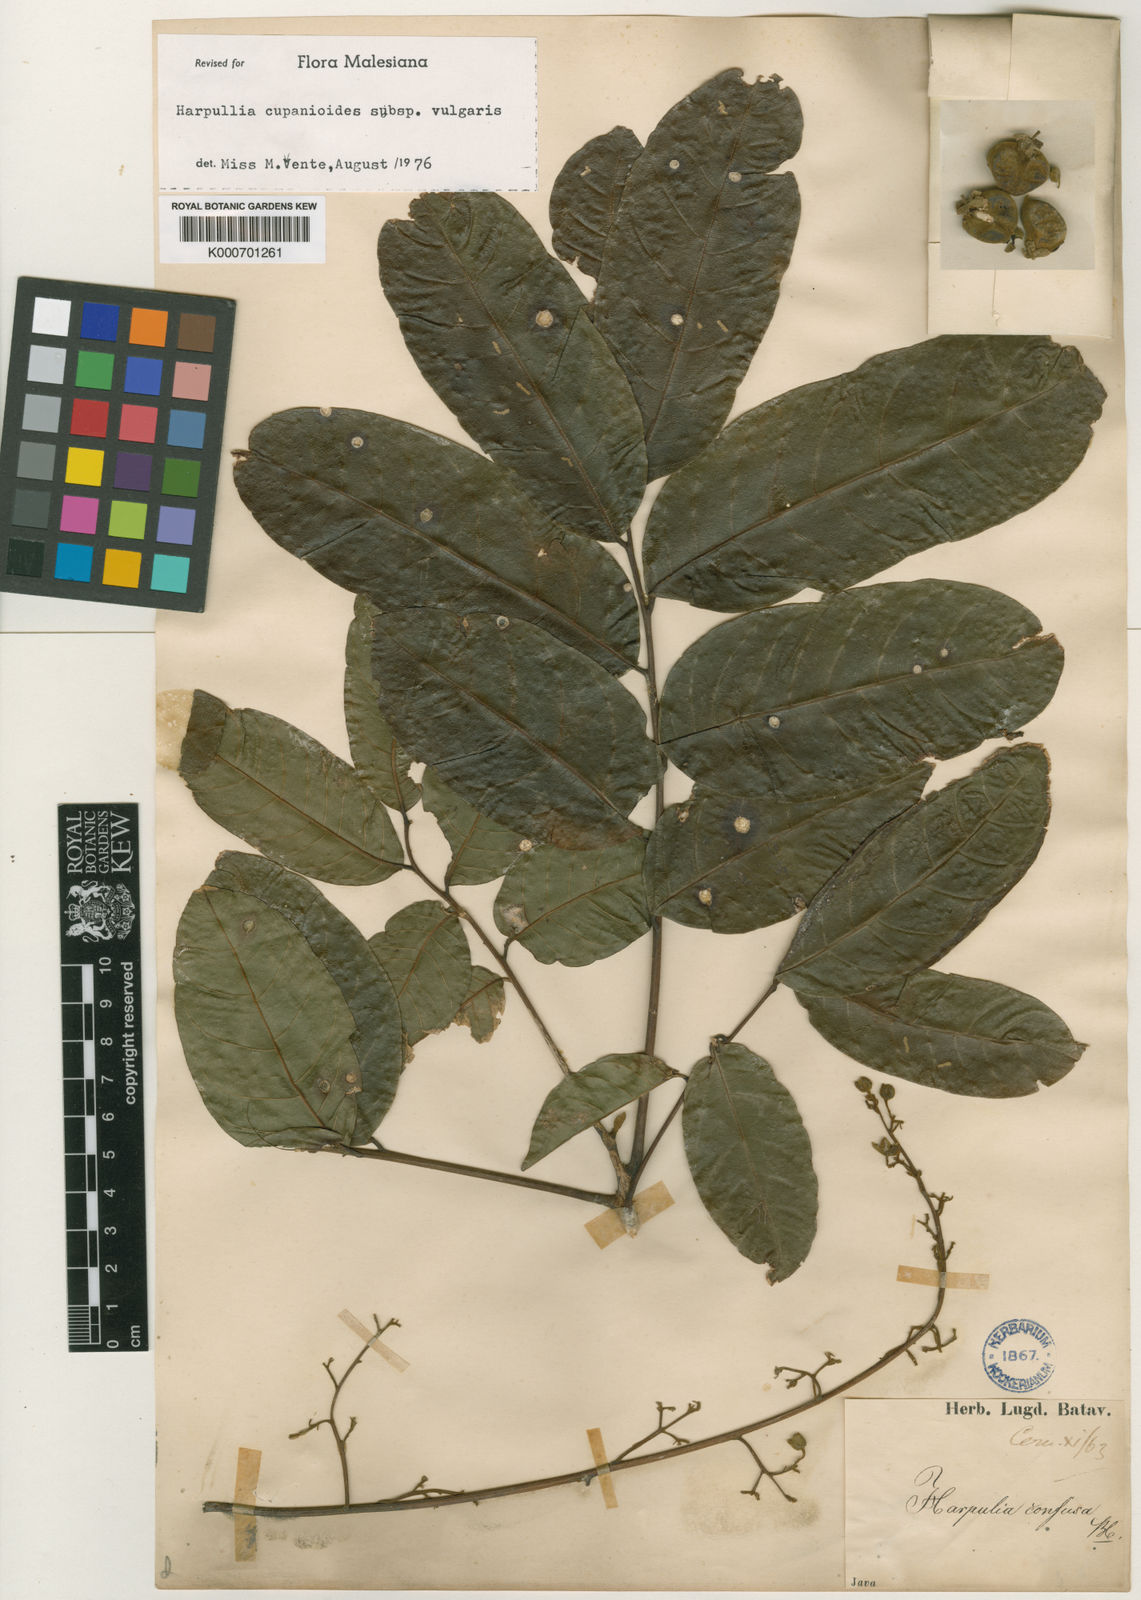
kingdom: Plantae
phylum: Tracheophyta
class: Magnoliopsida
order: Sapindales
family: Sapindaceae
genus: Harpullia
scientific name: Harpullia cupanioides
